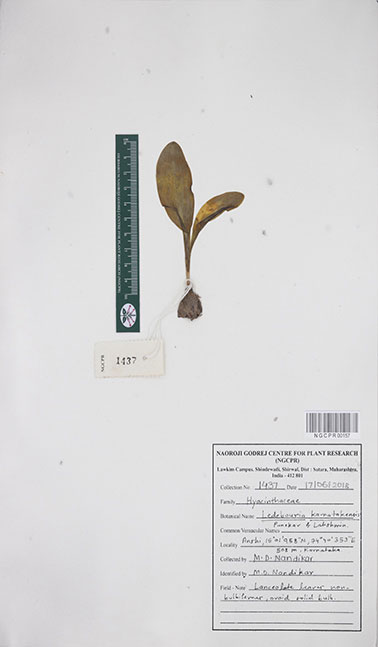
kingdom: Plantae
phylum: Tracheophyta
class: Liliopsida
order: Asparagales
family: Asparagaceae
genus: Ledebouria
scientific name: Ledebouria karnatakensis
